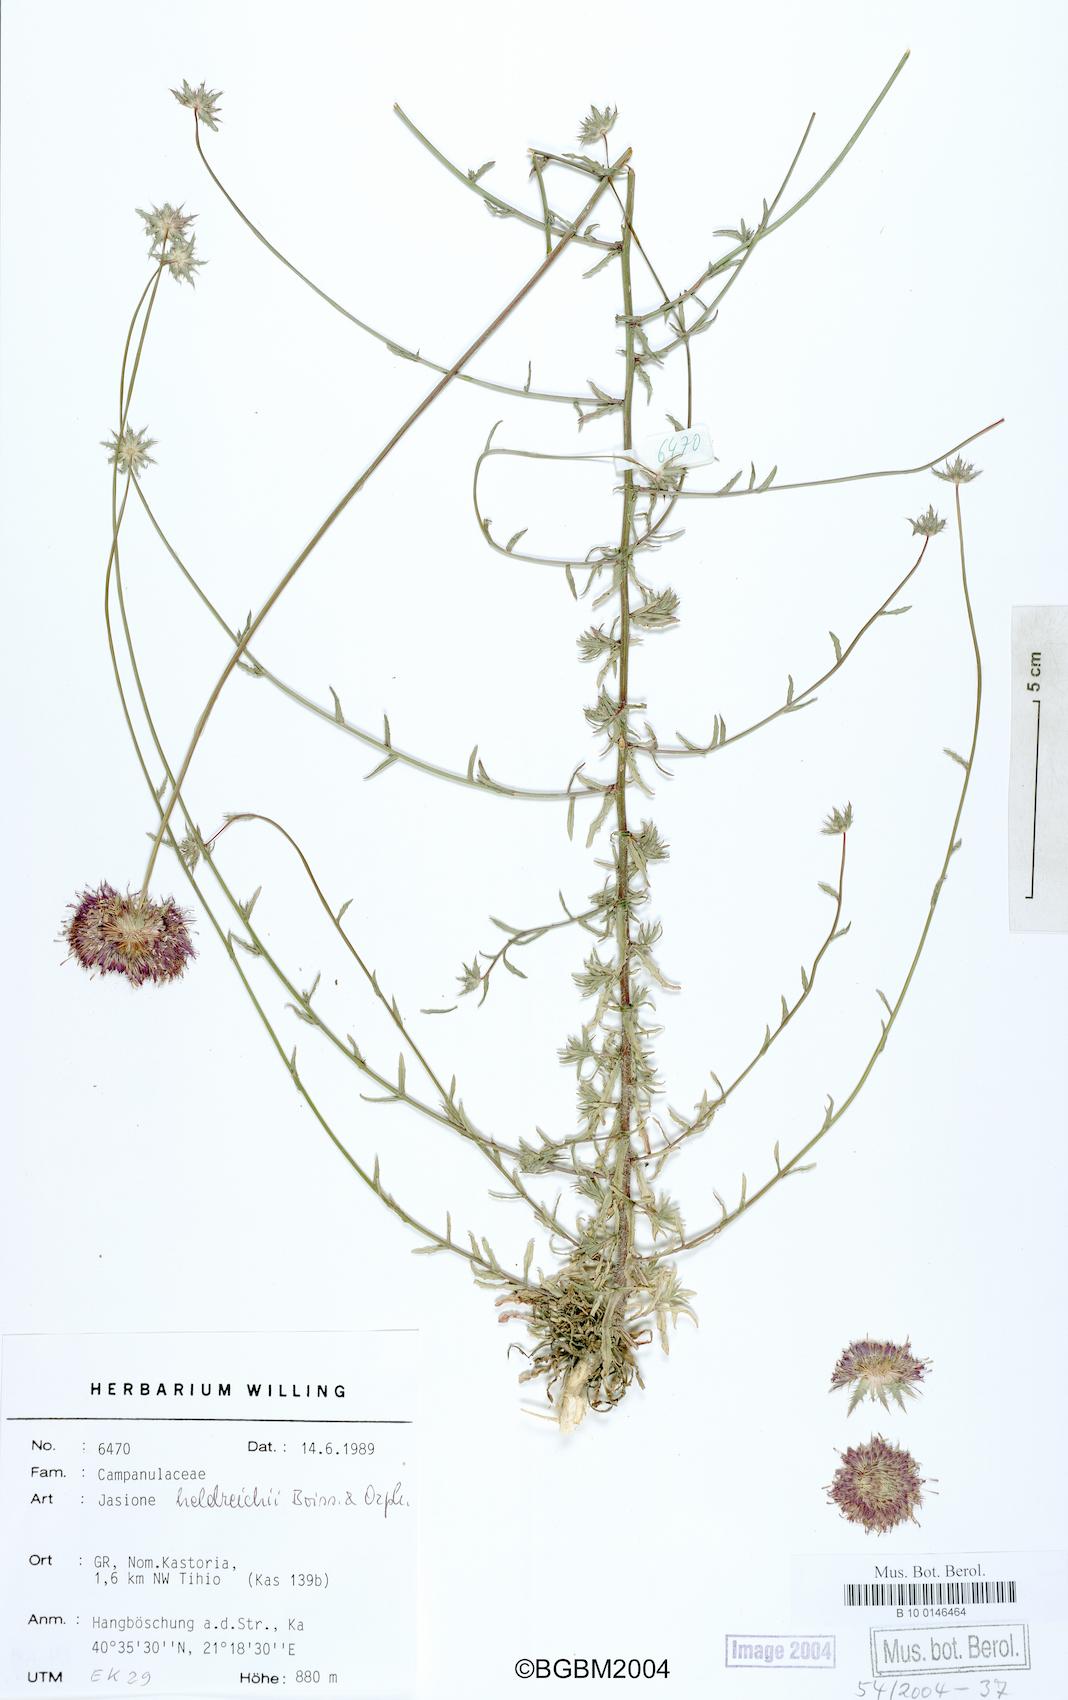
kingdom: Plantae
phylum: Tracheophyta
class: Magnoliopsida
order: Asterales
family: Campanulaceae
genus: Jasione
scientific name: Jasione heldreichii
